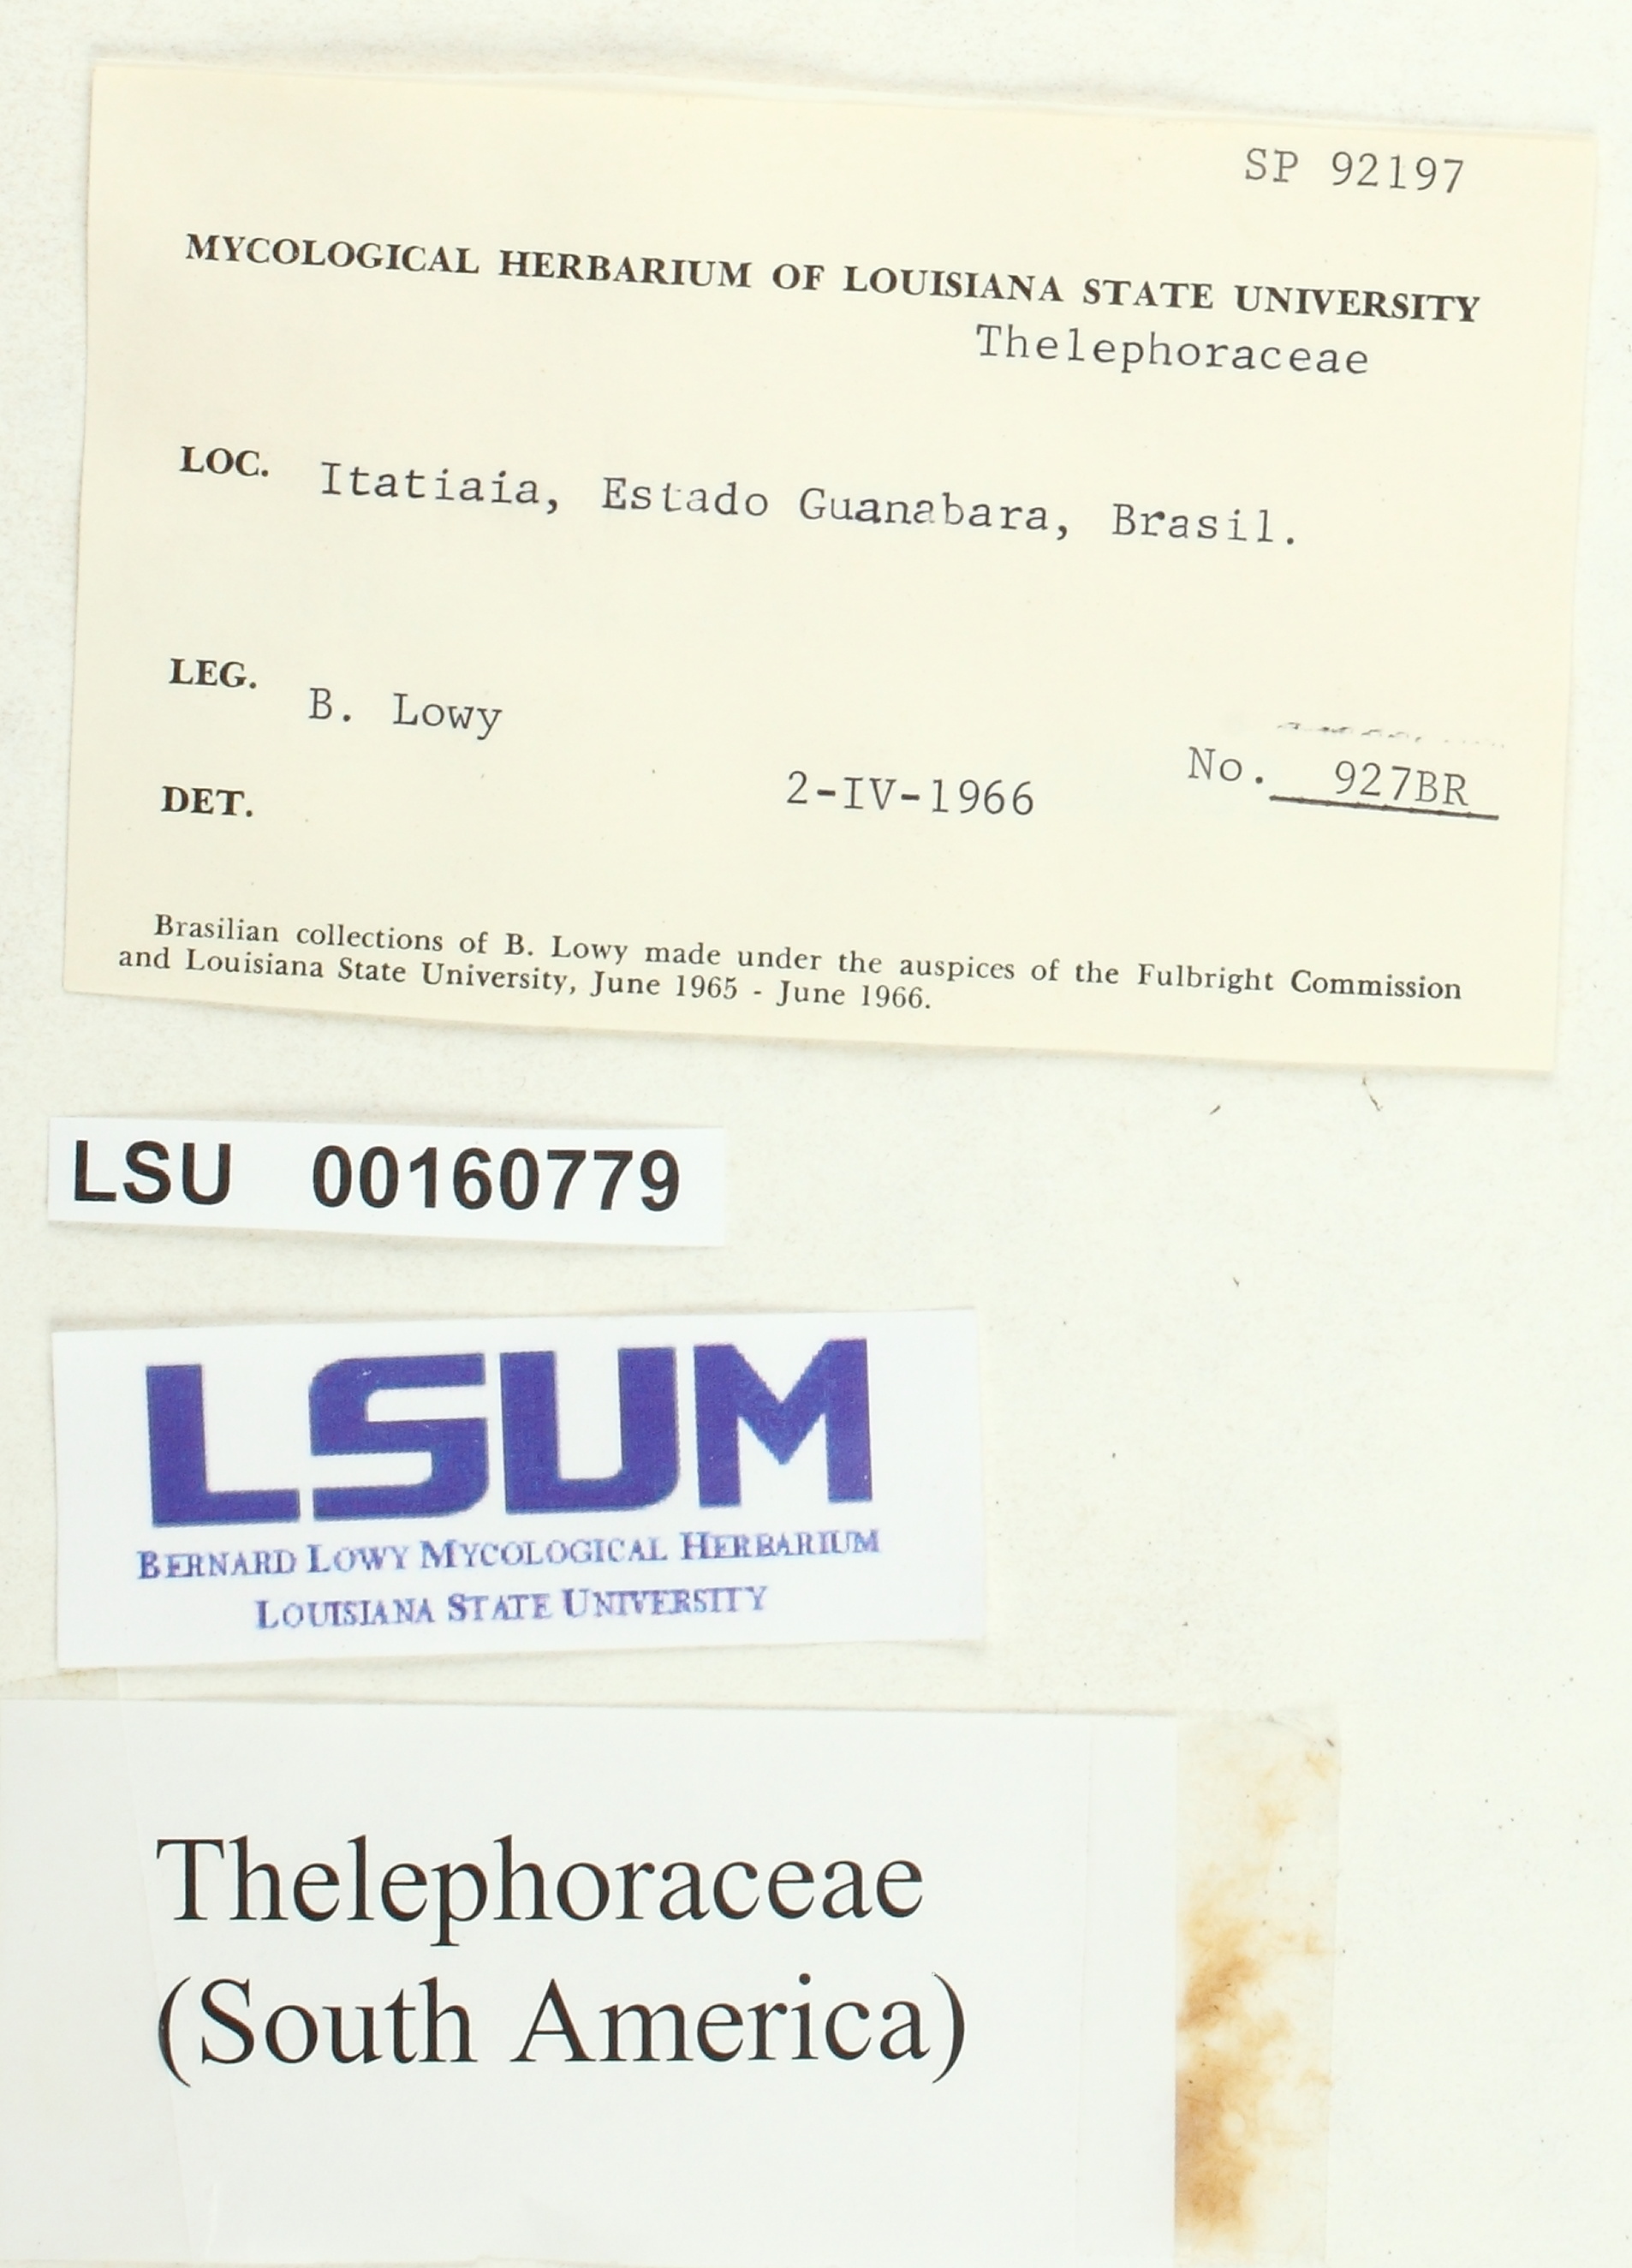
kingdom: Fungi
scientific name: Fungi
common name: Fungi
